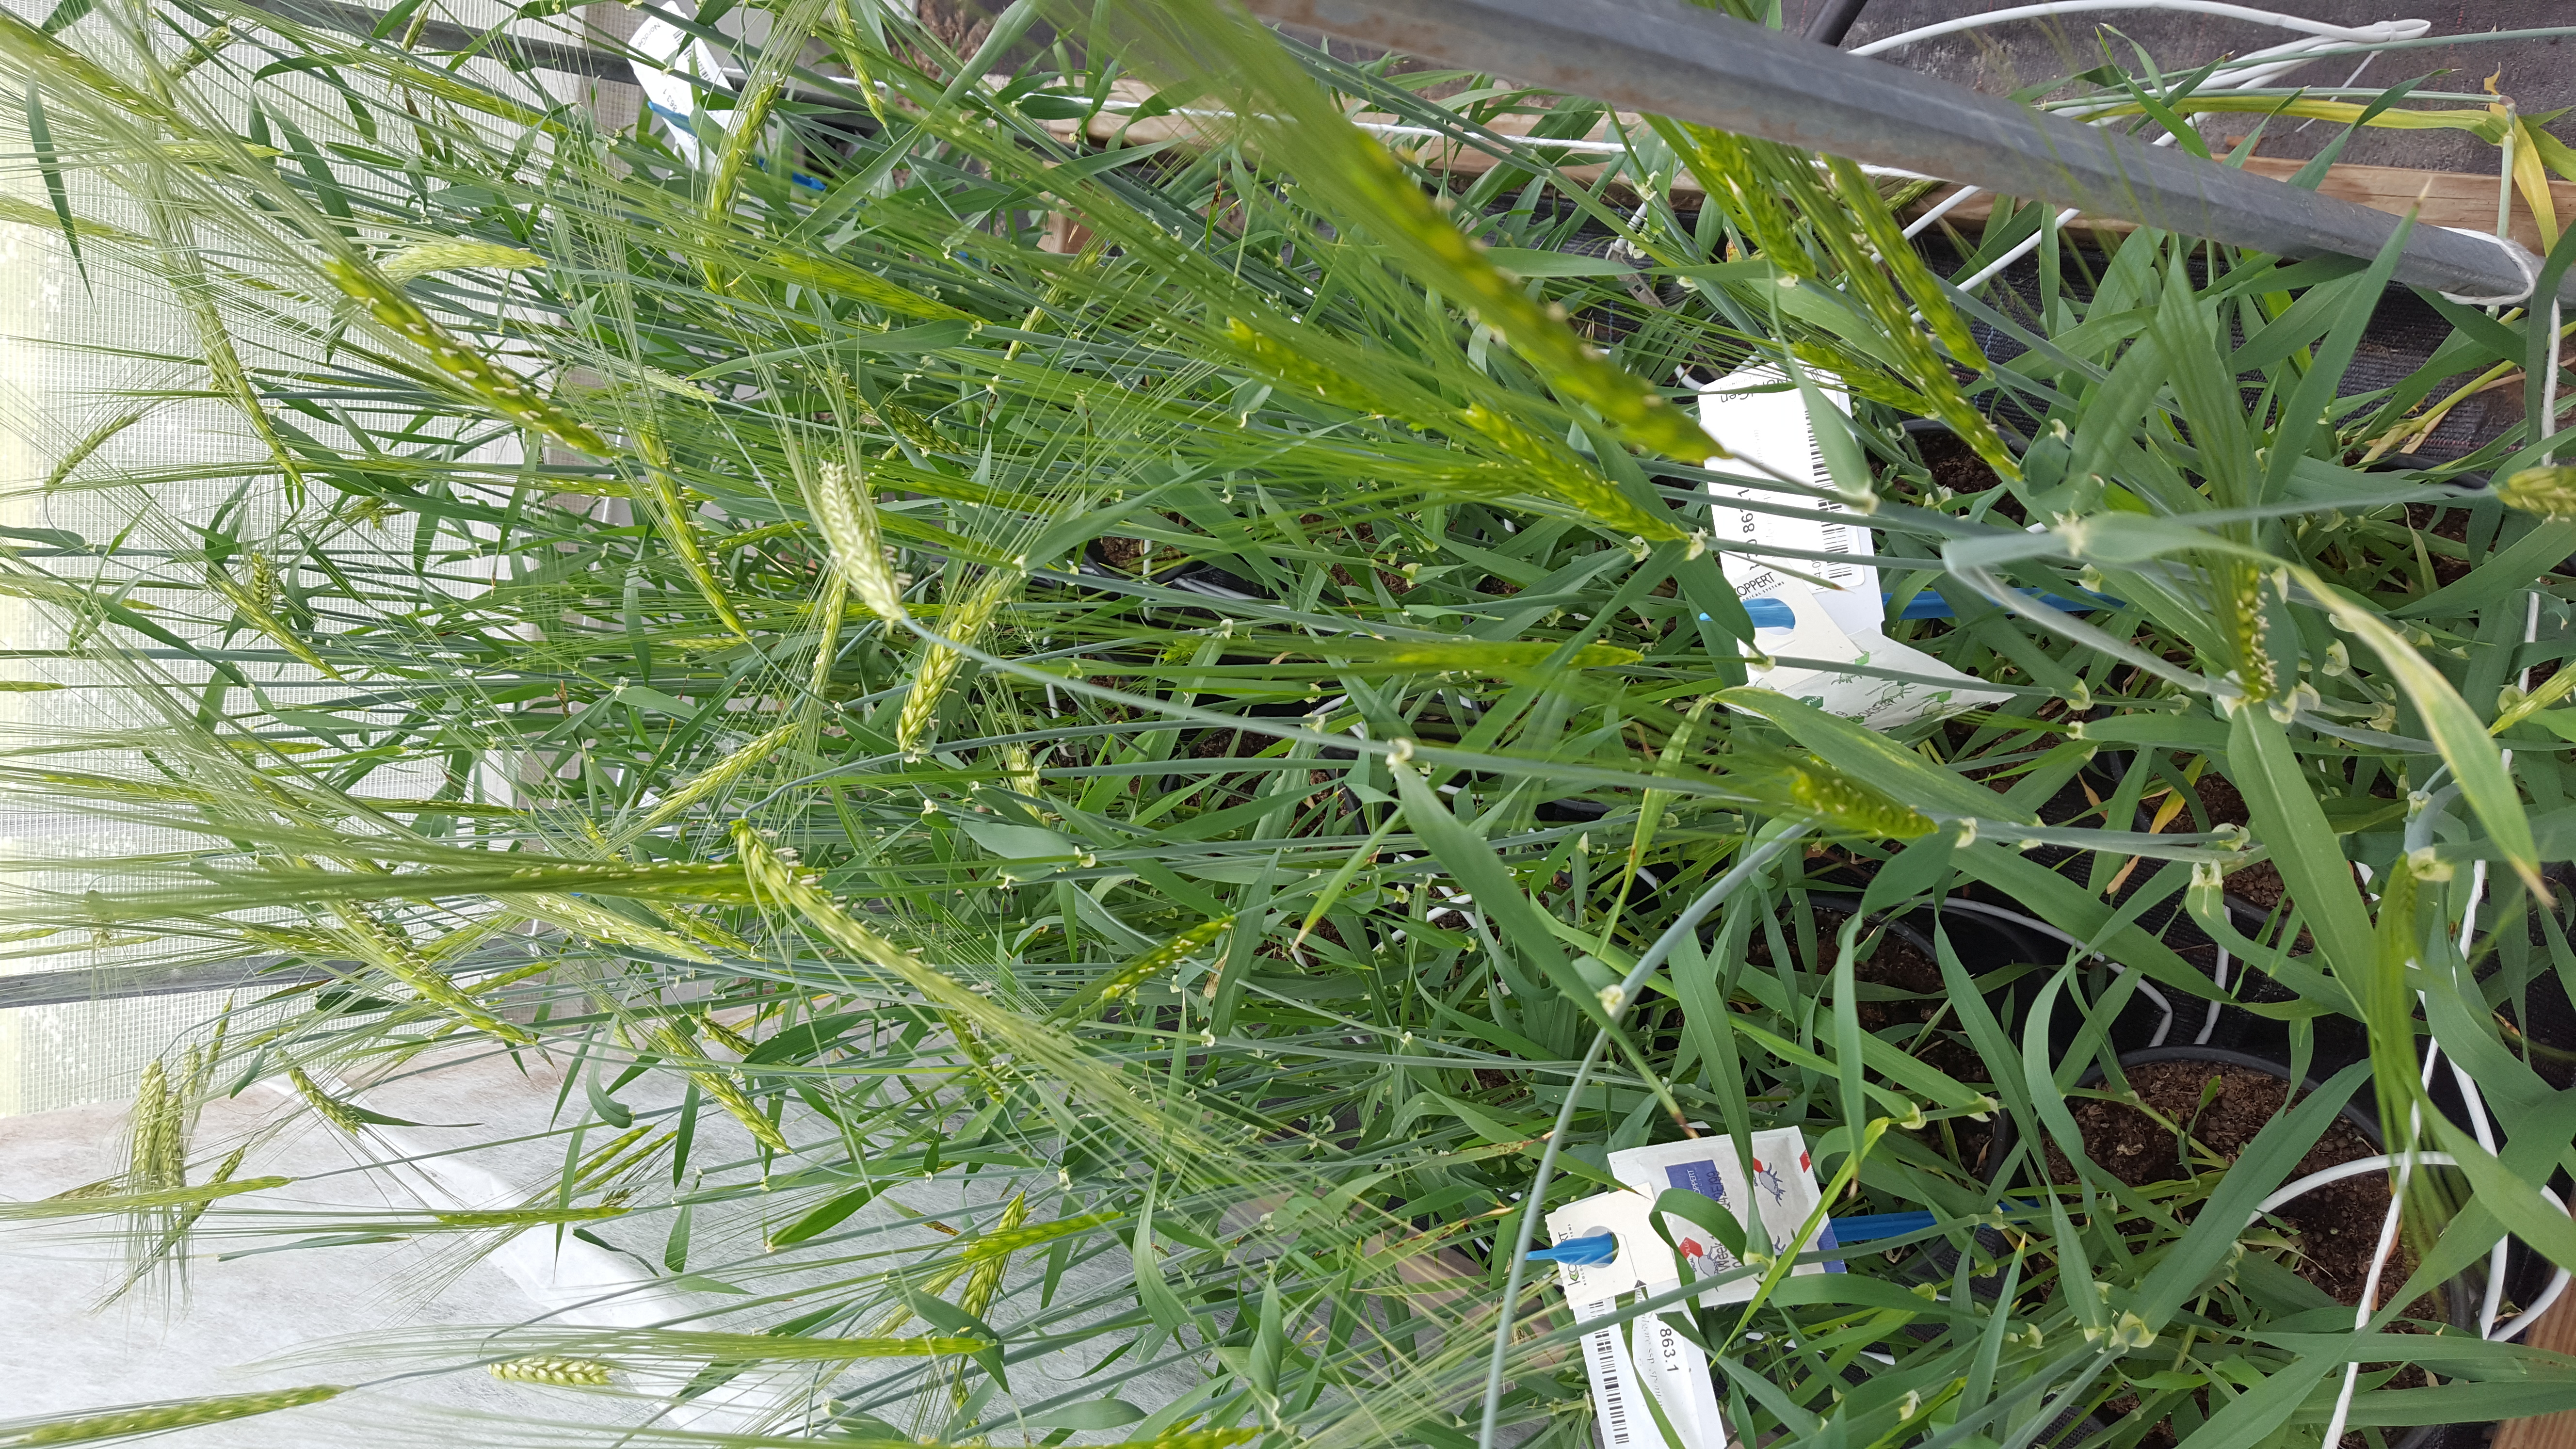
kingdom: Plantae
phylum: Tracheophyta
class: Liliopsida
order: Poales
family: Poaceae
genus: Hordeum
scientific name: Hordeum spontaneum
